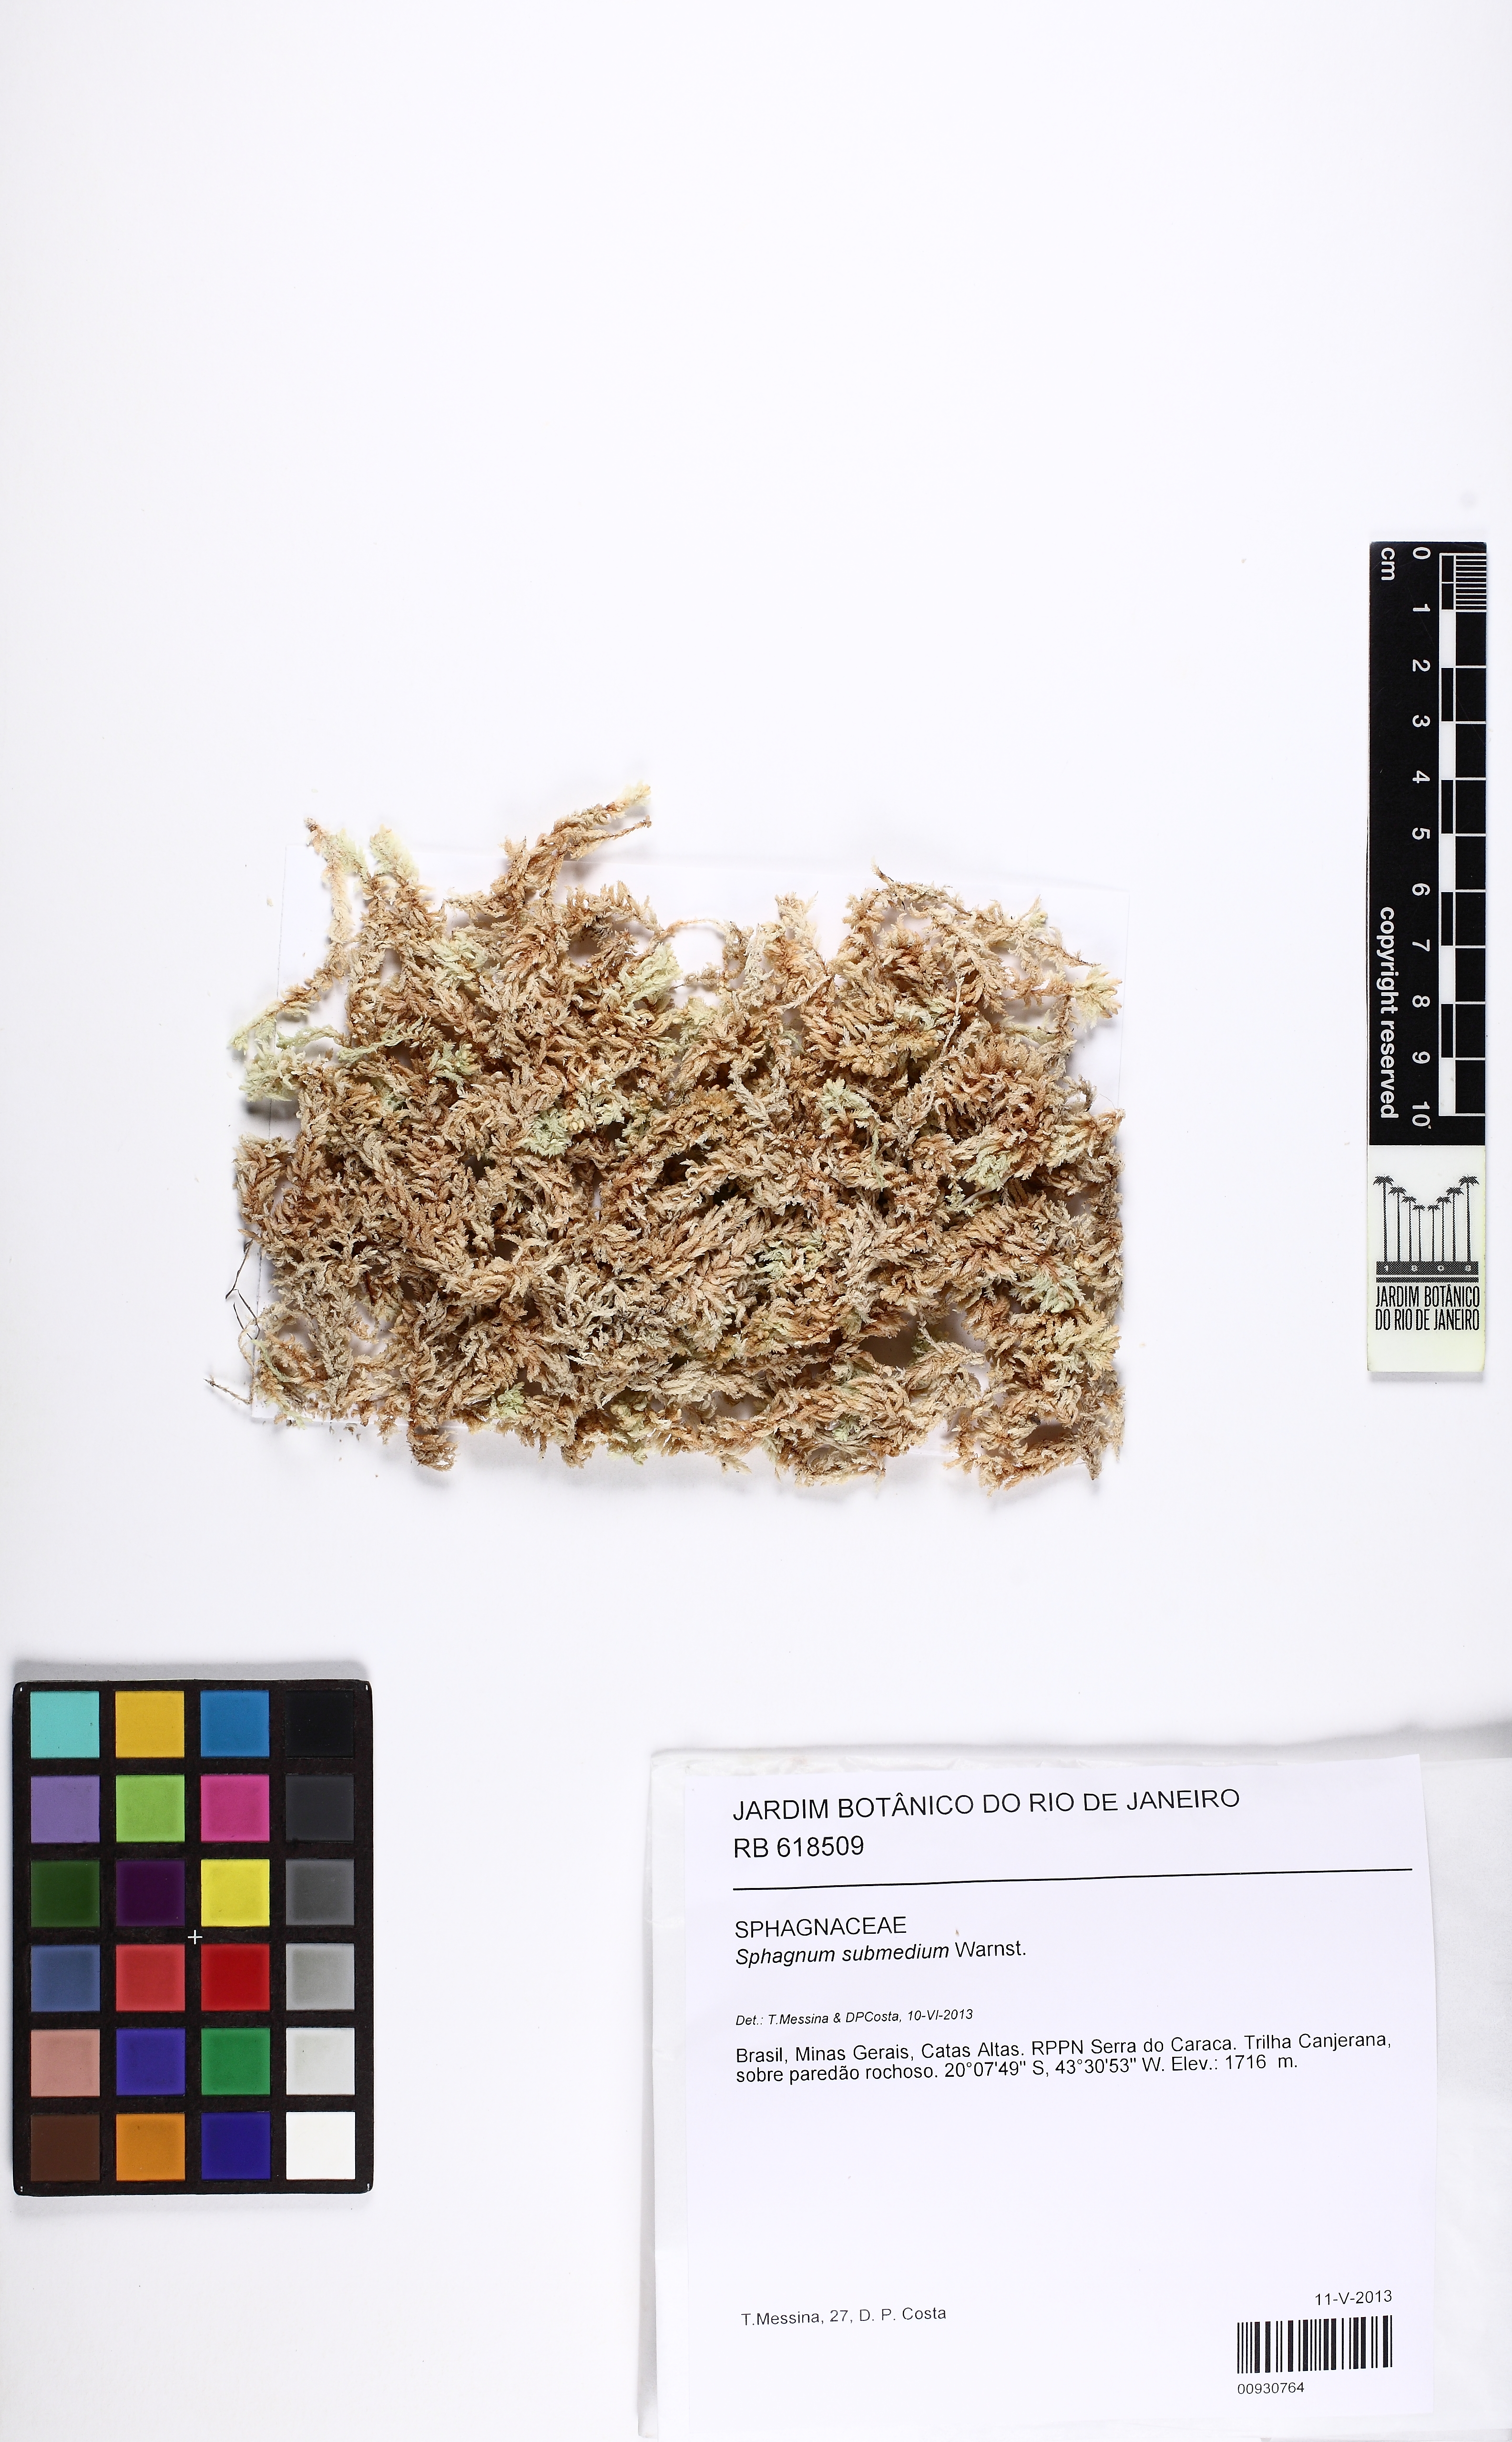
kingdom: Plantae
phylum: Bryophyta
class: Sphagnopsida
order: Sphagnales
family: Sphagnaceae
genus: Sphagnum
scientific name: Sphagnum submedium
